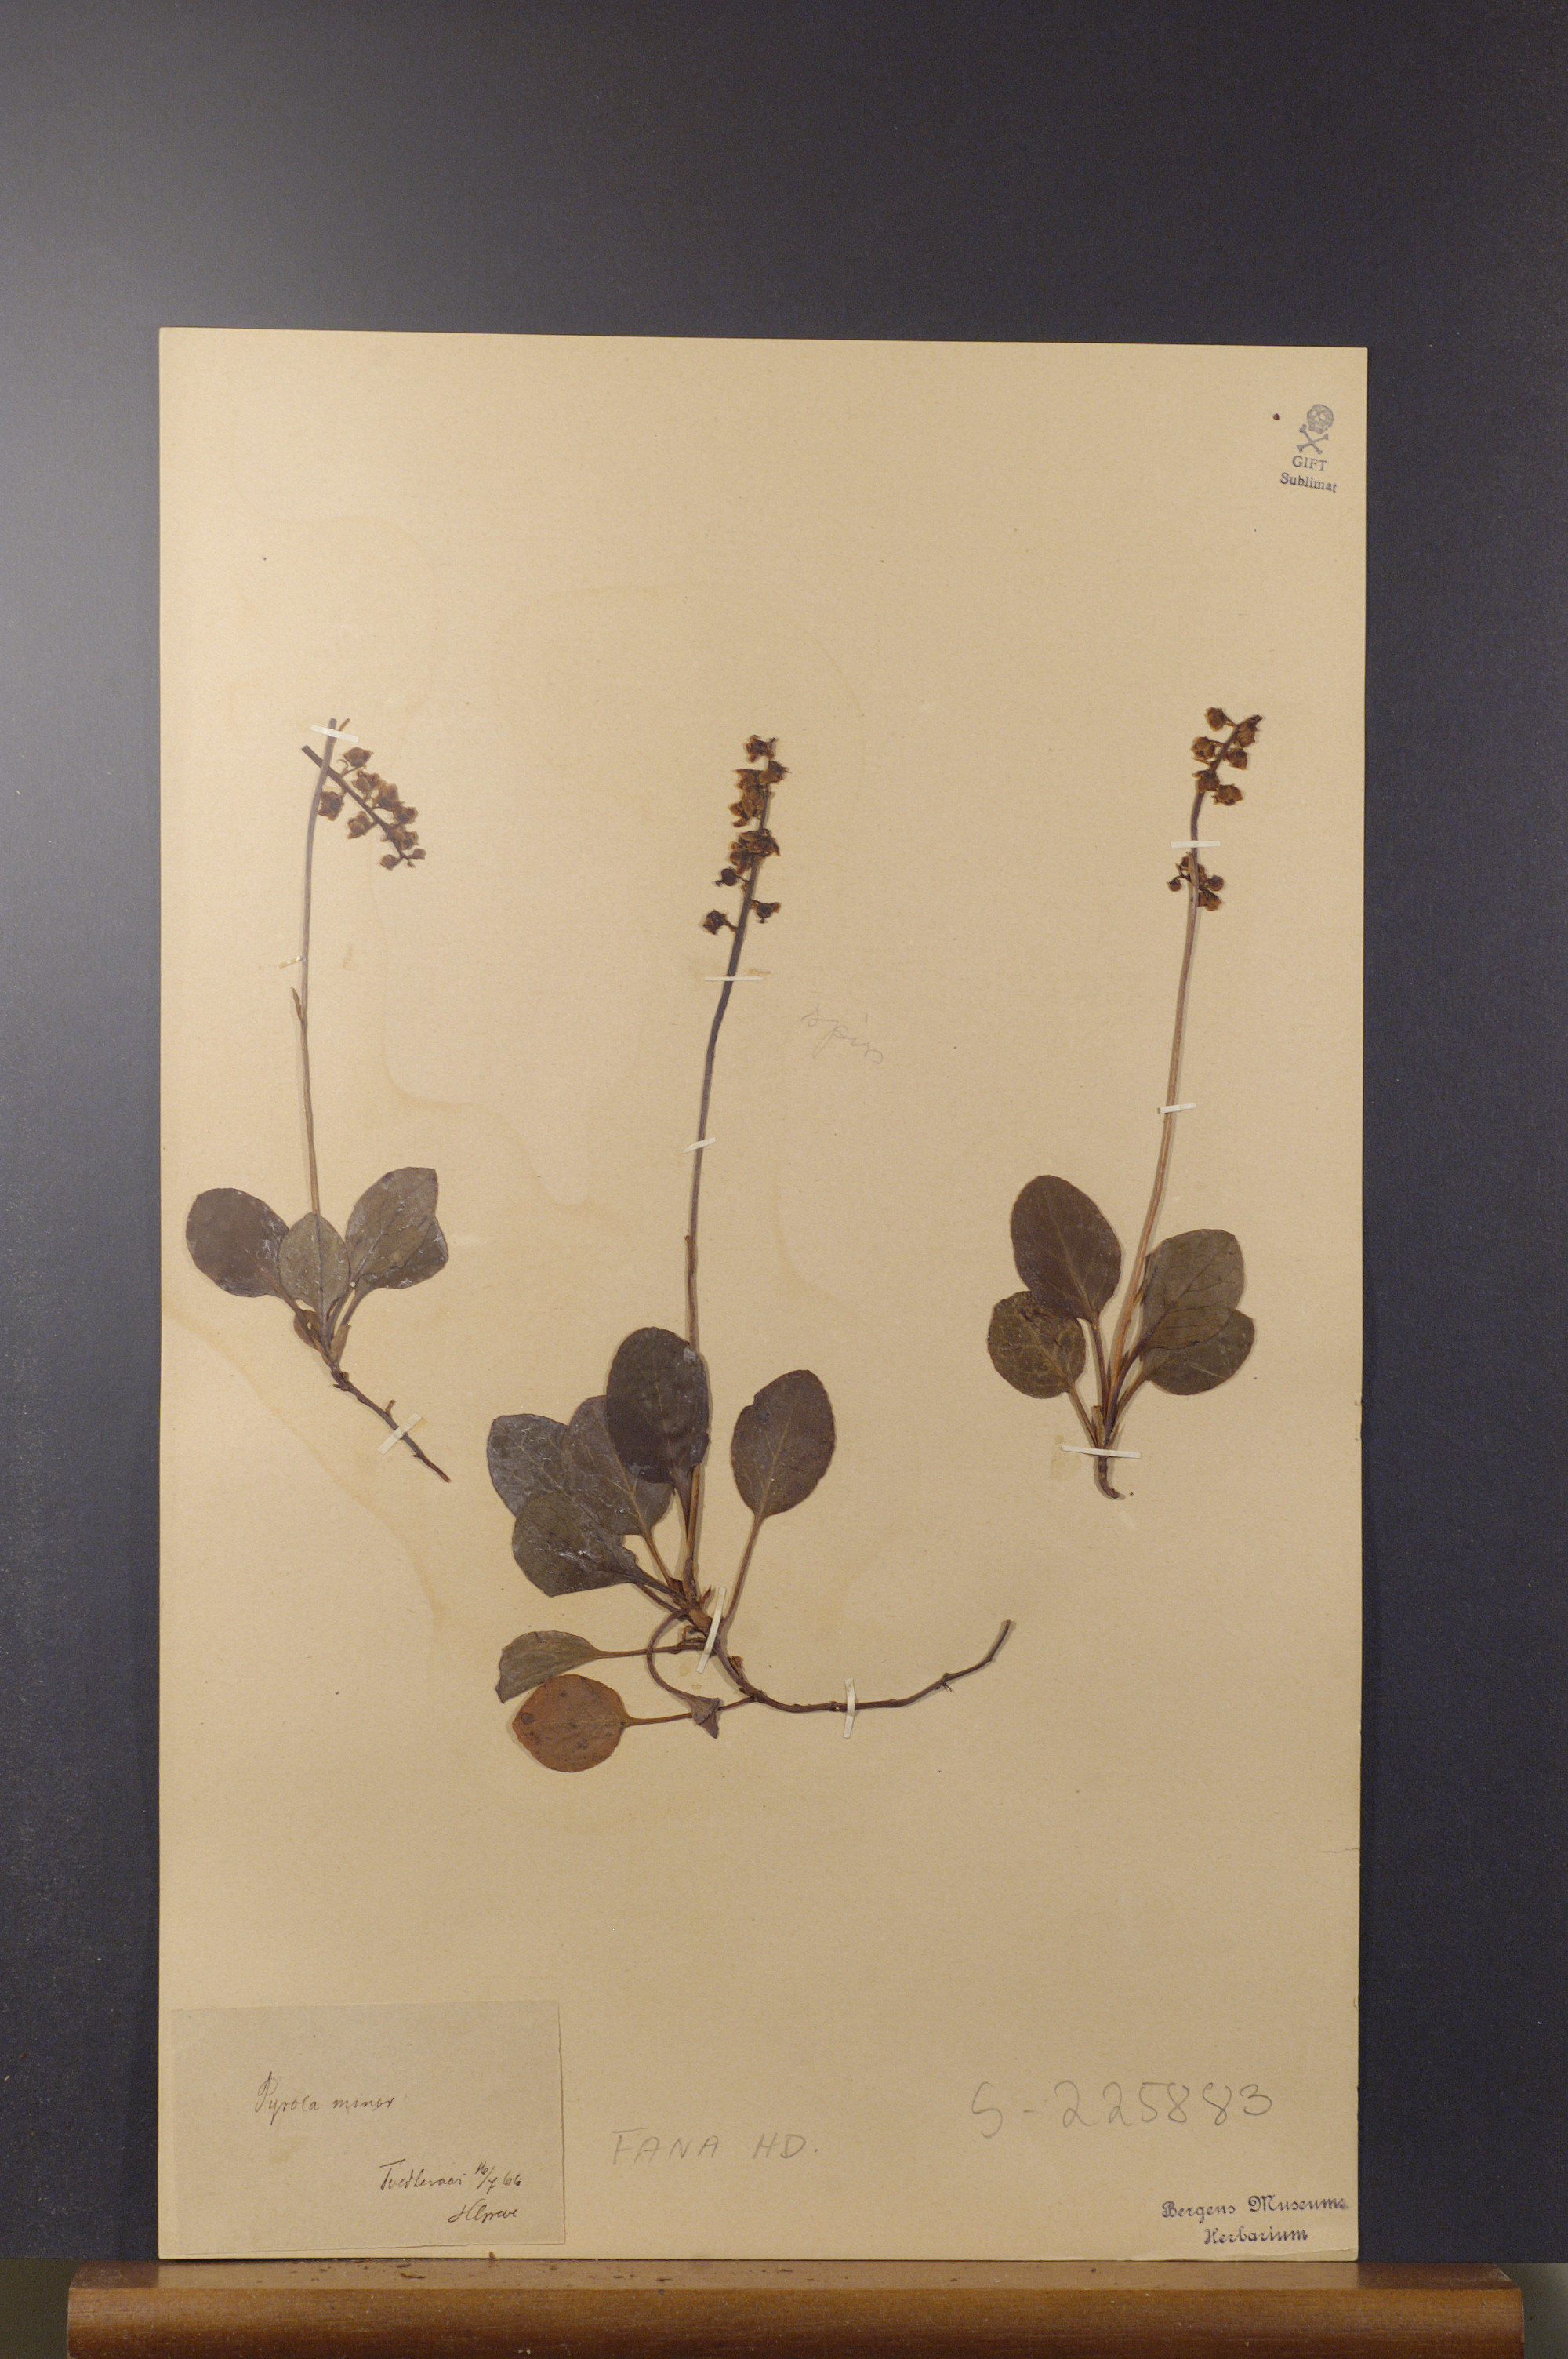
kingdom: Plantae
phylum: Tracheophyta
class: Magnoliopsida
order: Ericales
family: Ericaceae
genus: Pyrola
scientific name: Pyrola minor
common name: Common wintergreen
